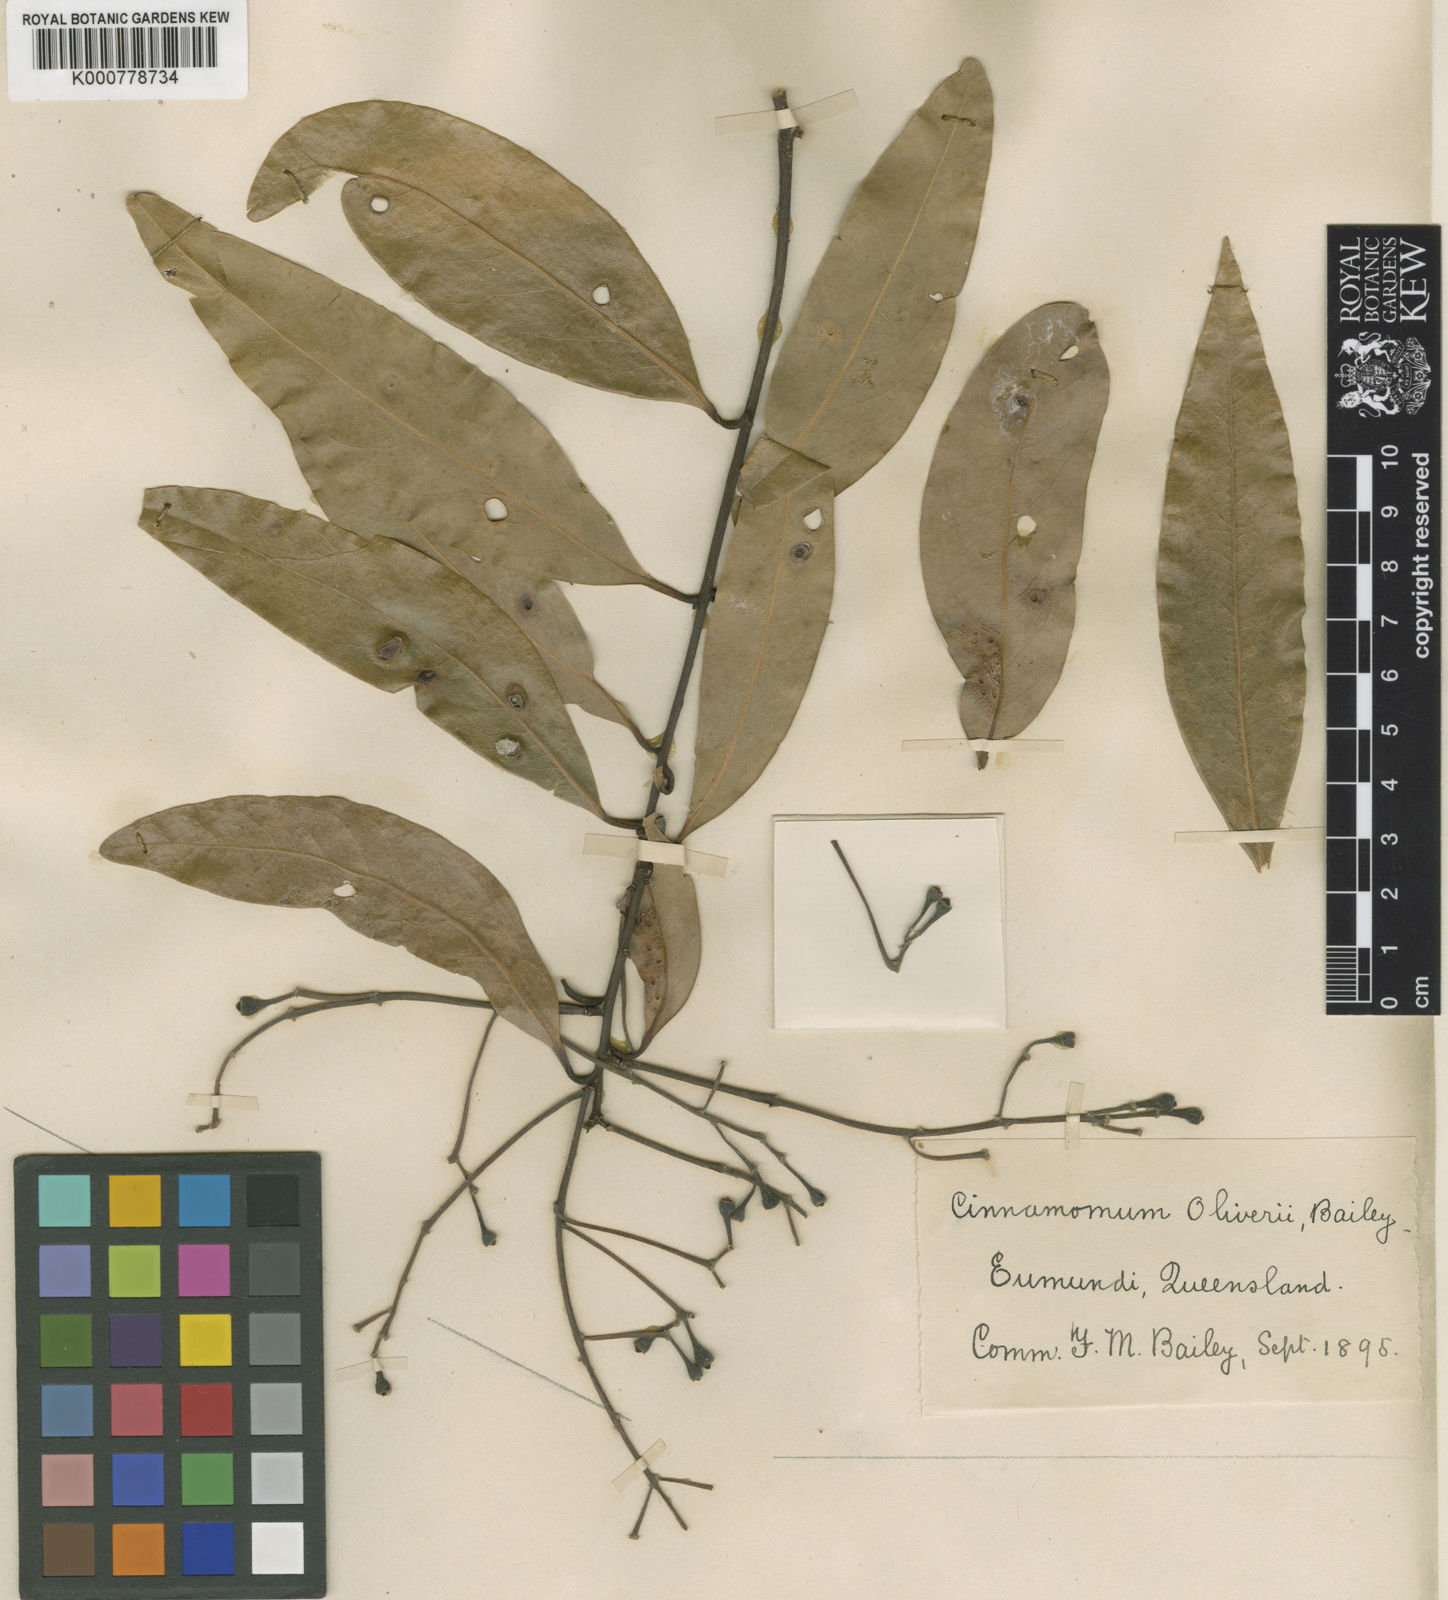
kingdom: Plantae
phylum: Tracheophyta
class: Magnoliopsida
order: Laurales
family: Lauraceae
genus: Cinnamomum
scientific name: Cinnamomum oliveri
